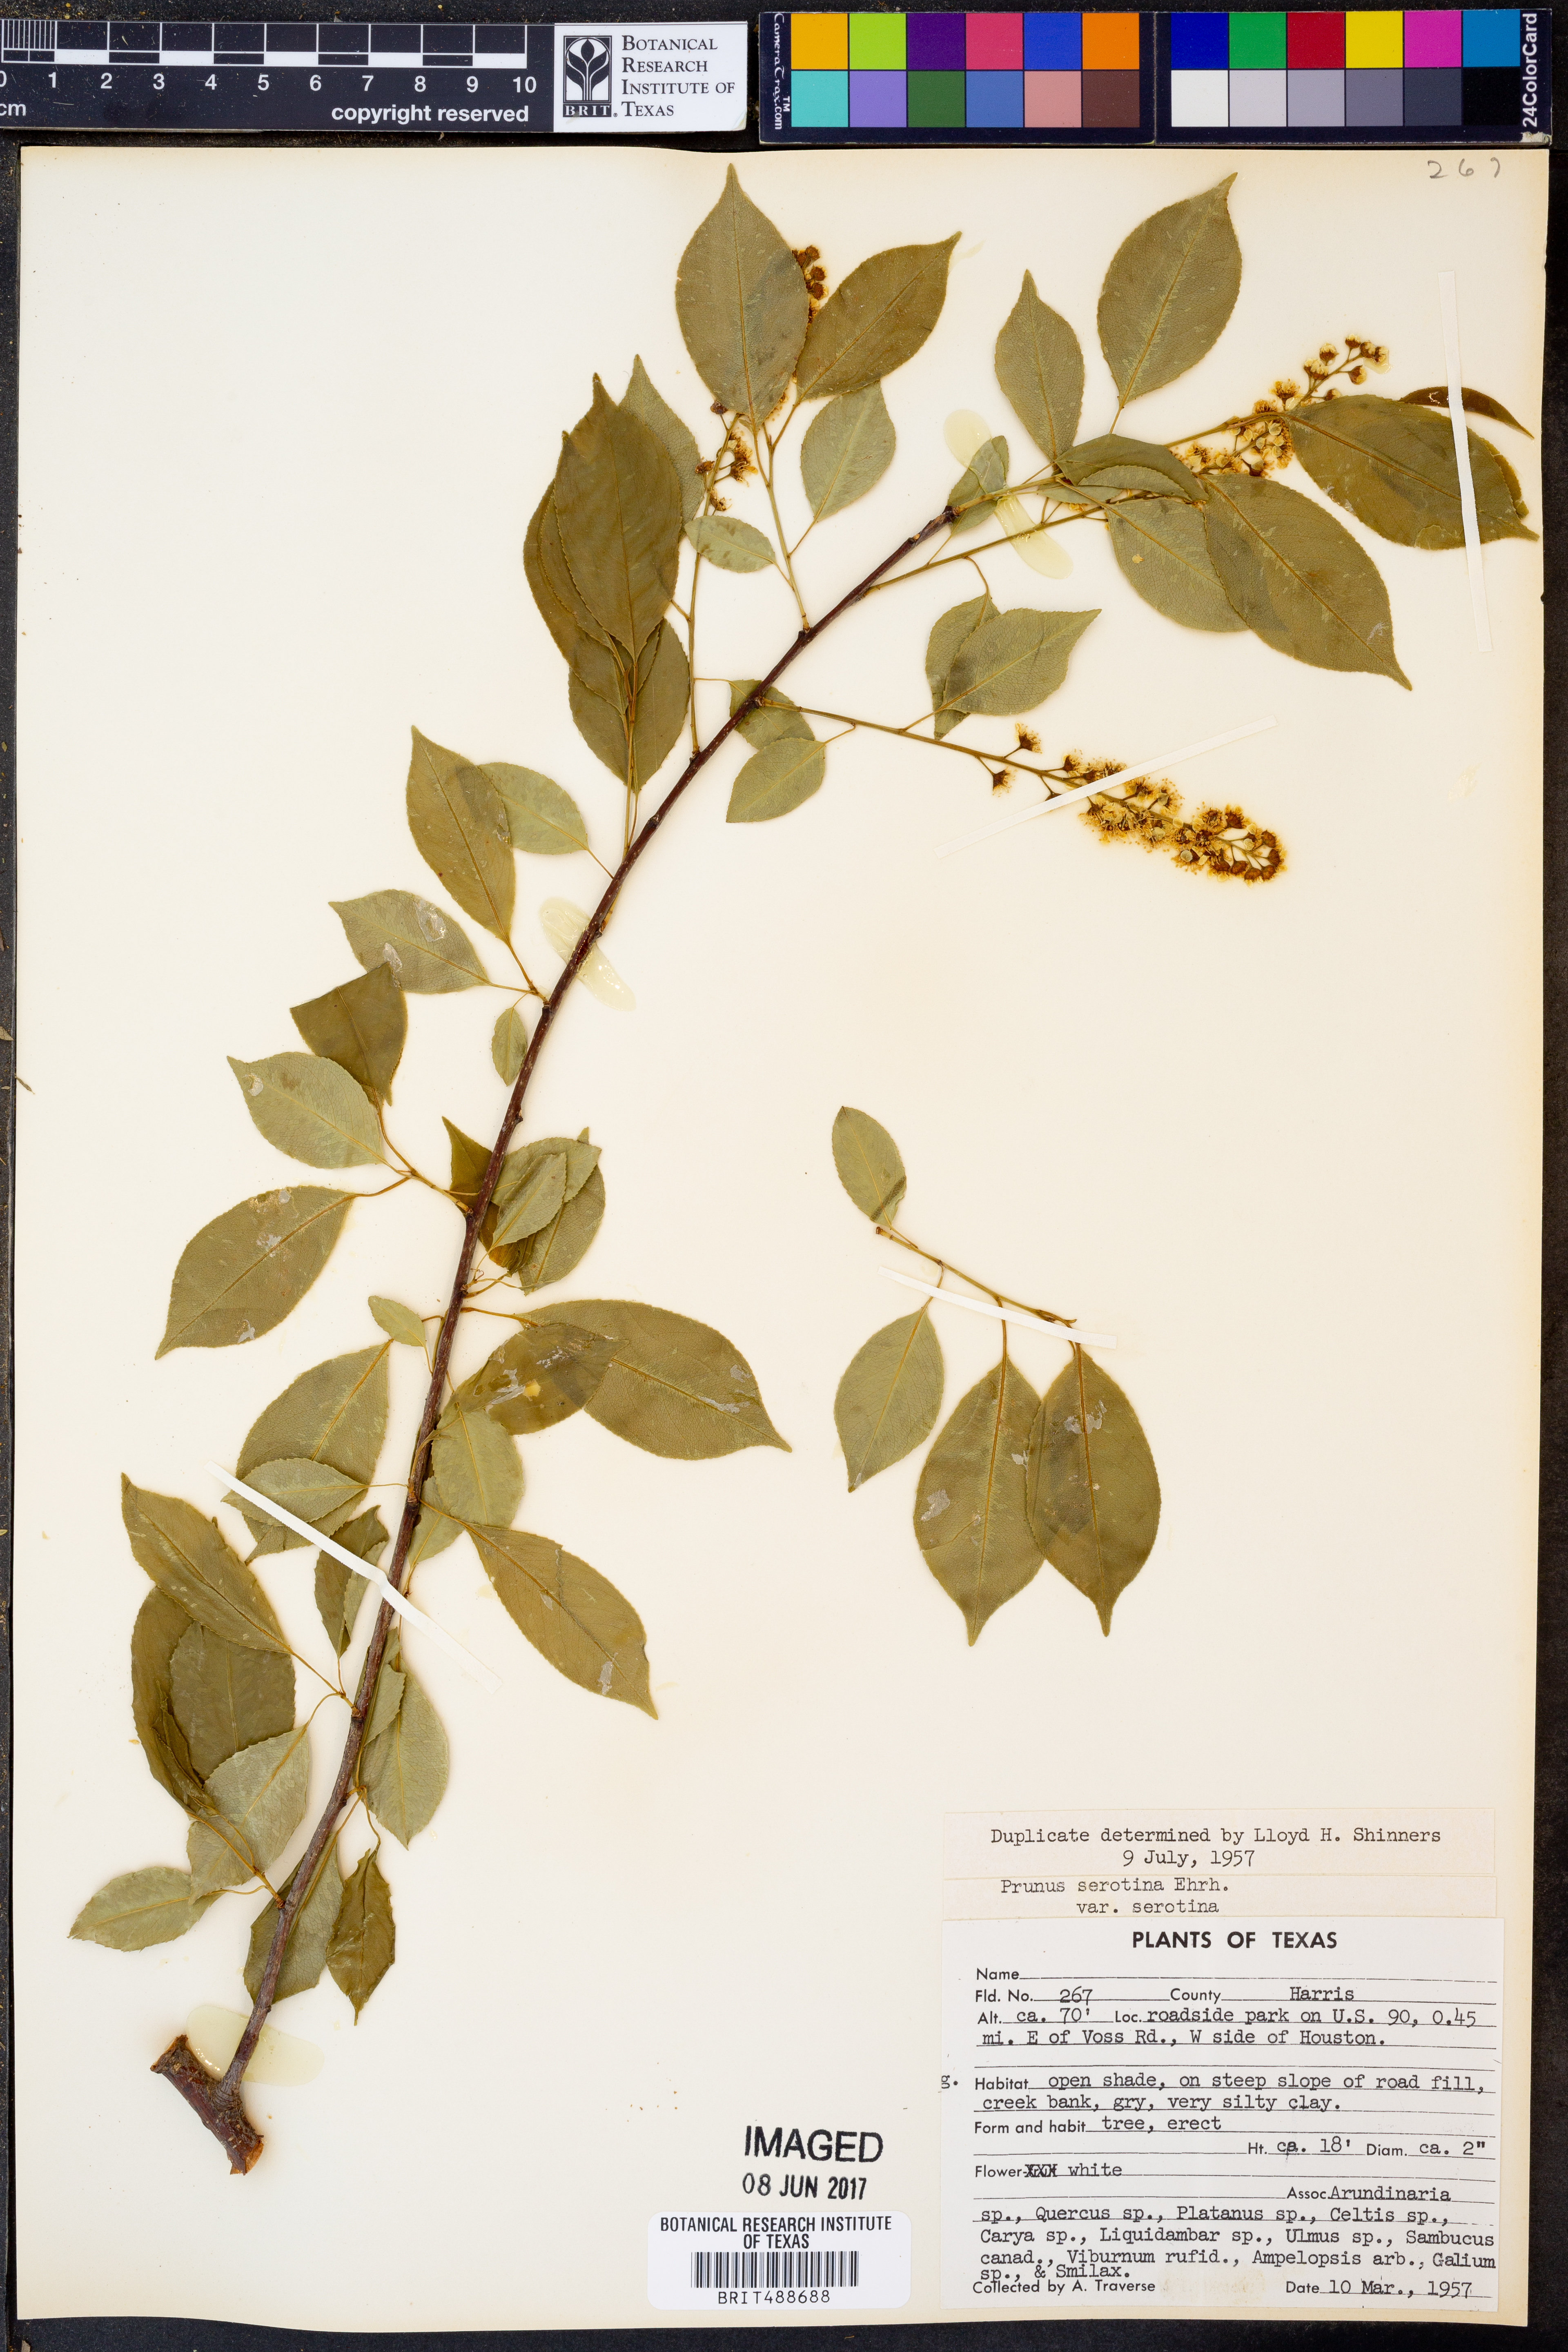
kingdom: Plantae
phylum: Tracheophyta
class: Magnoliopsida
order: Rosales
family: Rosaceae
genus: Prunus
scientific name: Prunus serotina
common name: Black cherry
